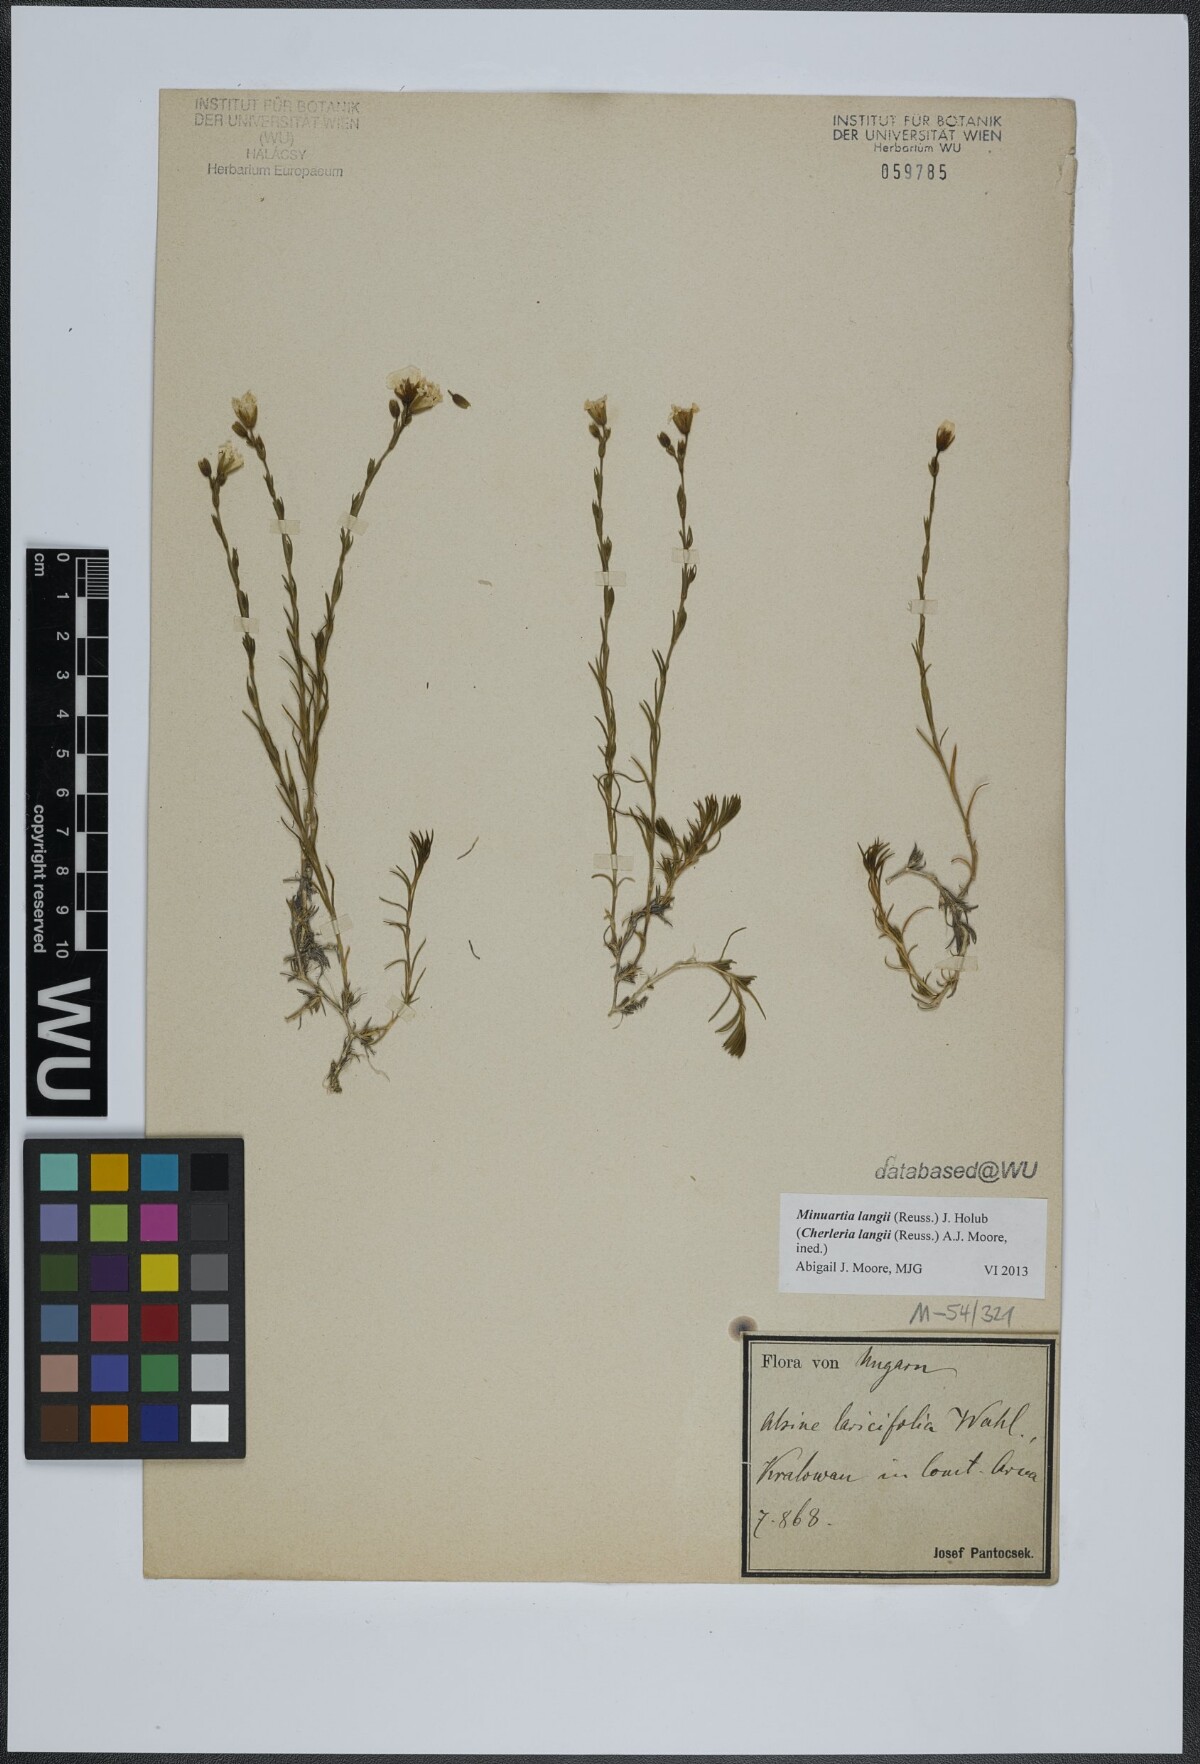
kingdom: Plantae
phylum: Tracheophyta
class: Magnoliopsida
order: Caryophyllales
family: Caryophyllaceae
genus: Cherleria
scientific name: Cherleria langii
